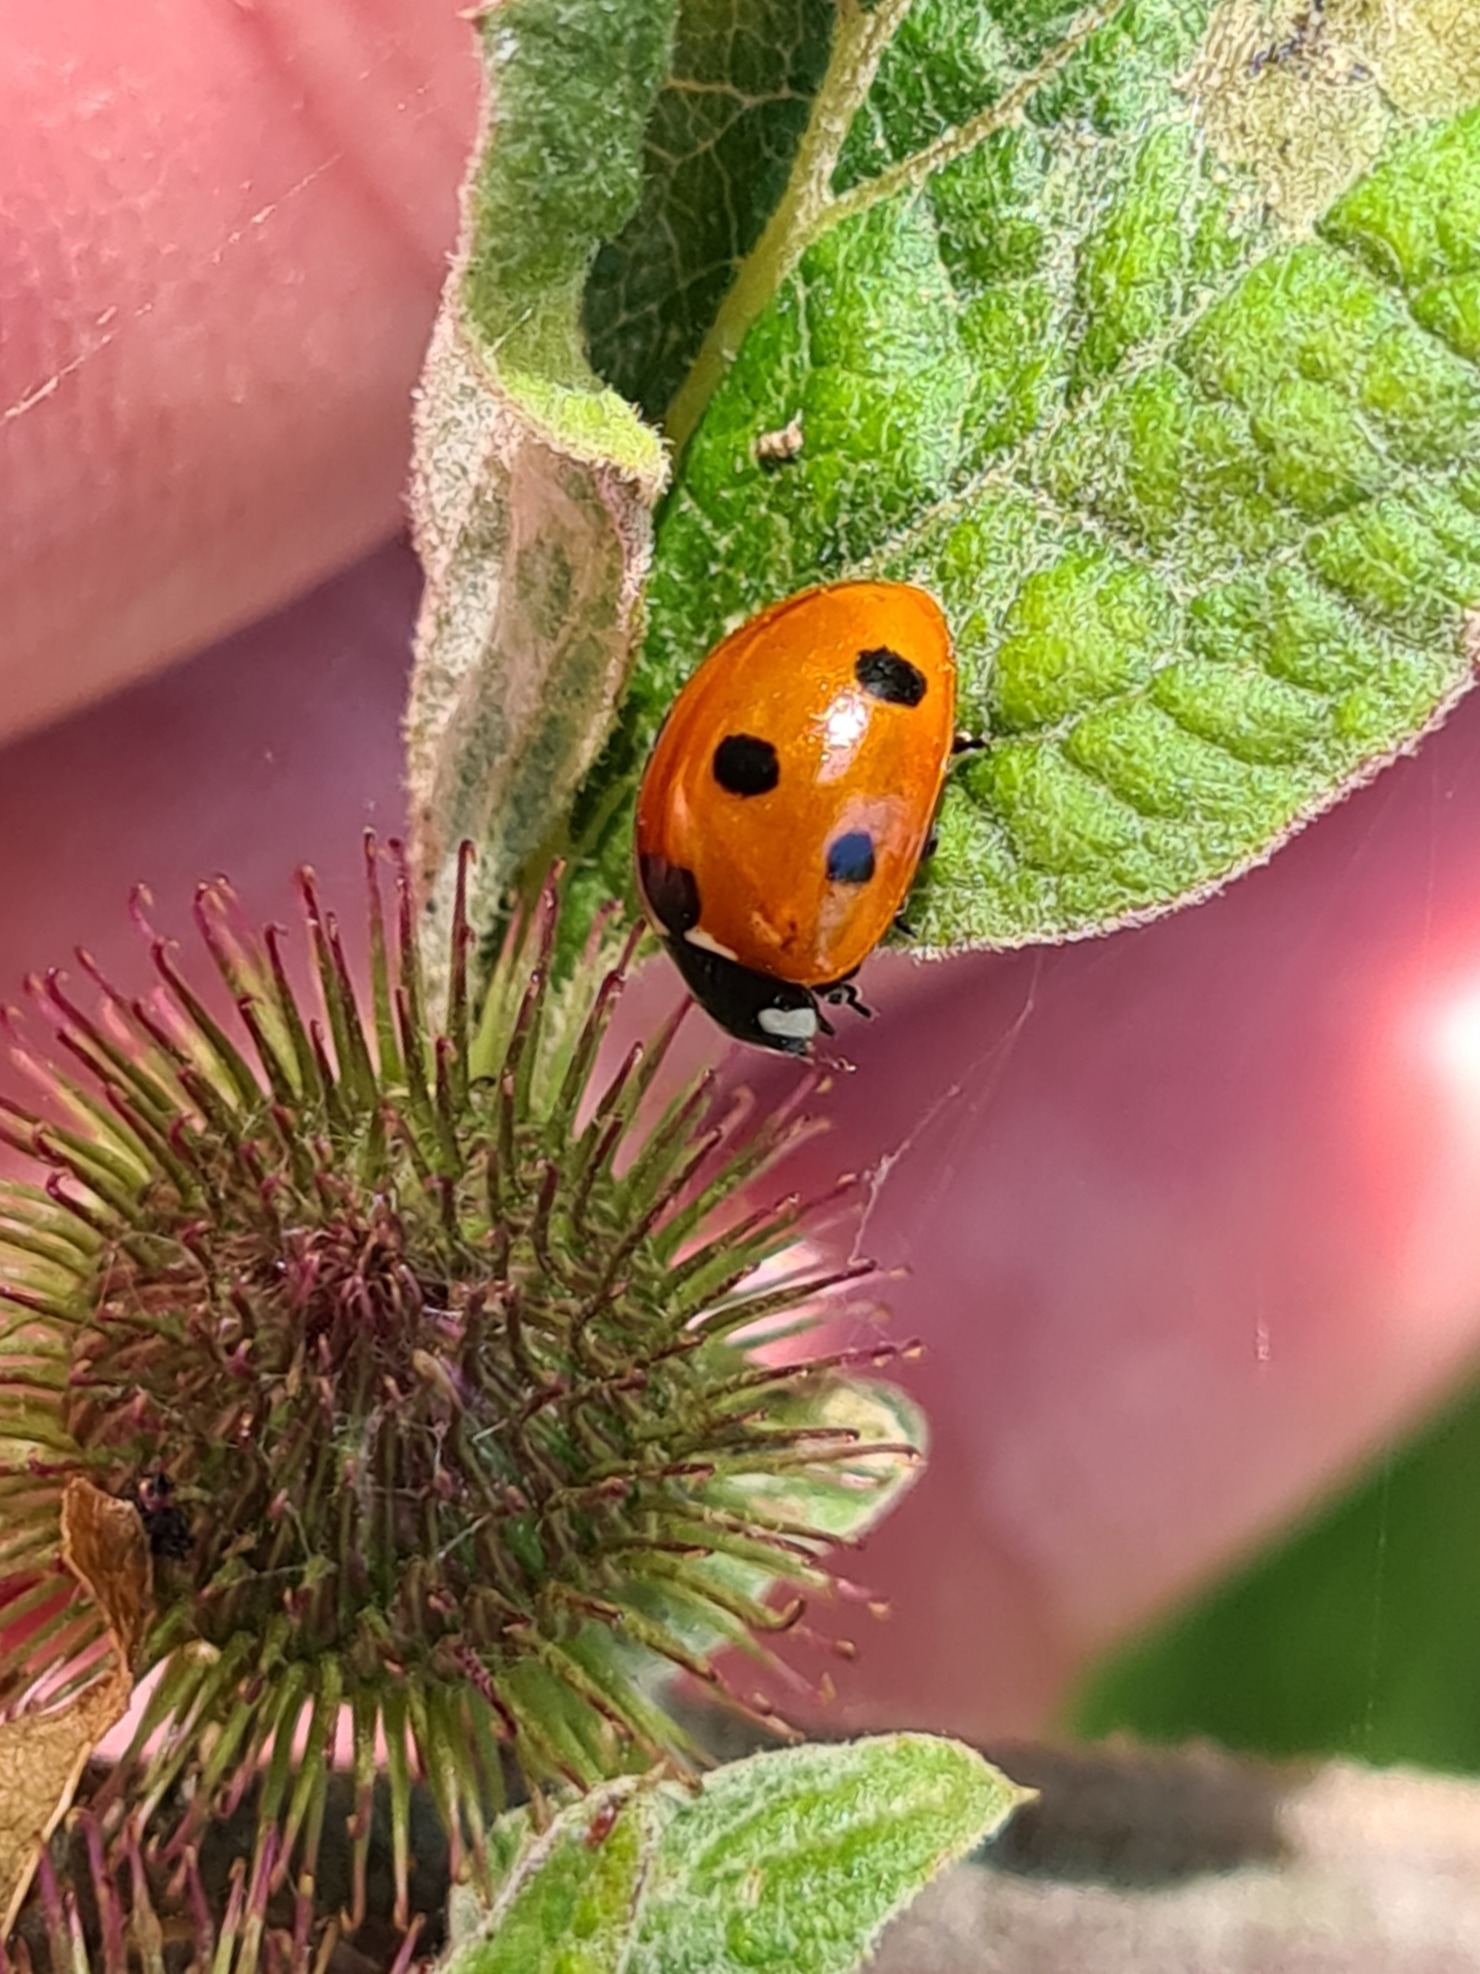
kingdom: Animalia
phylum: Arthropoda
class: Insecta
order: Coleoptera
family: Coccinellidae
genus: Coccinella
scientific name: Coccinella septempunctata
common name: Syvplettet mariehøne
